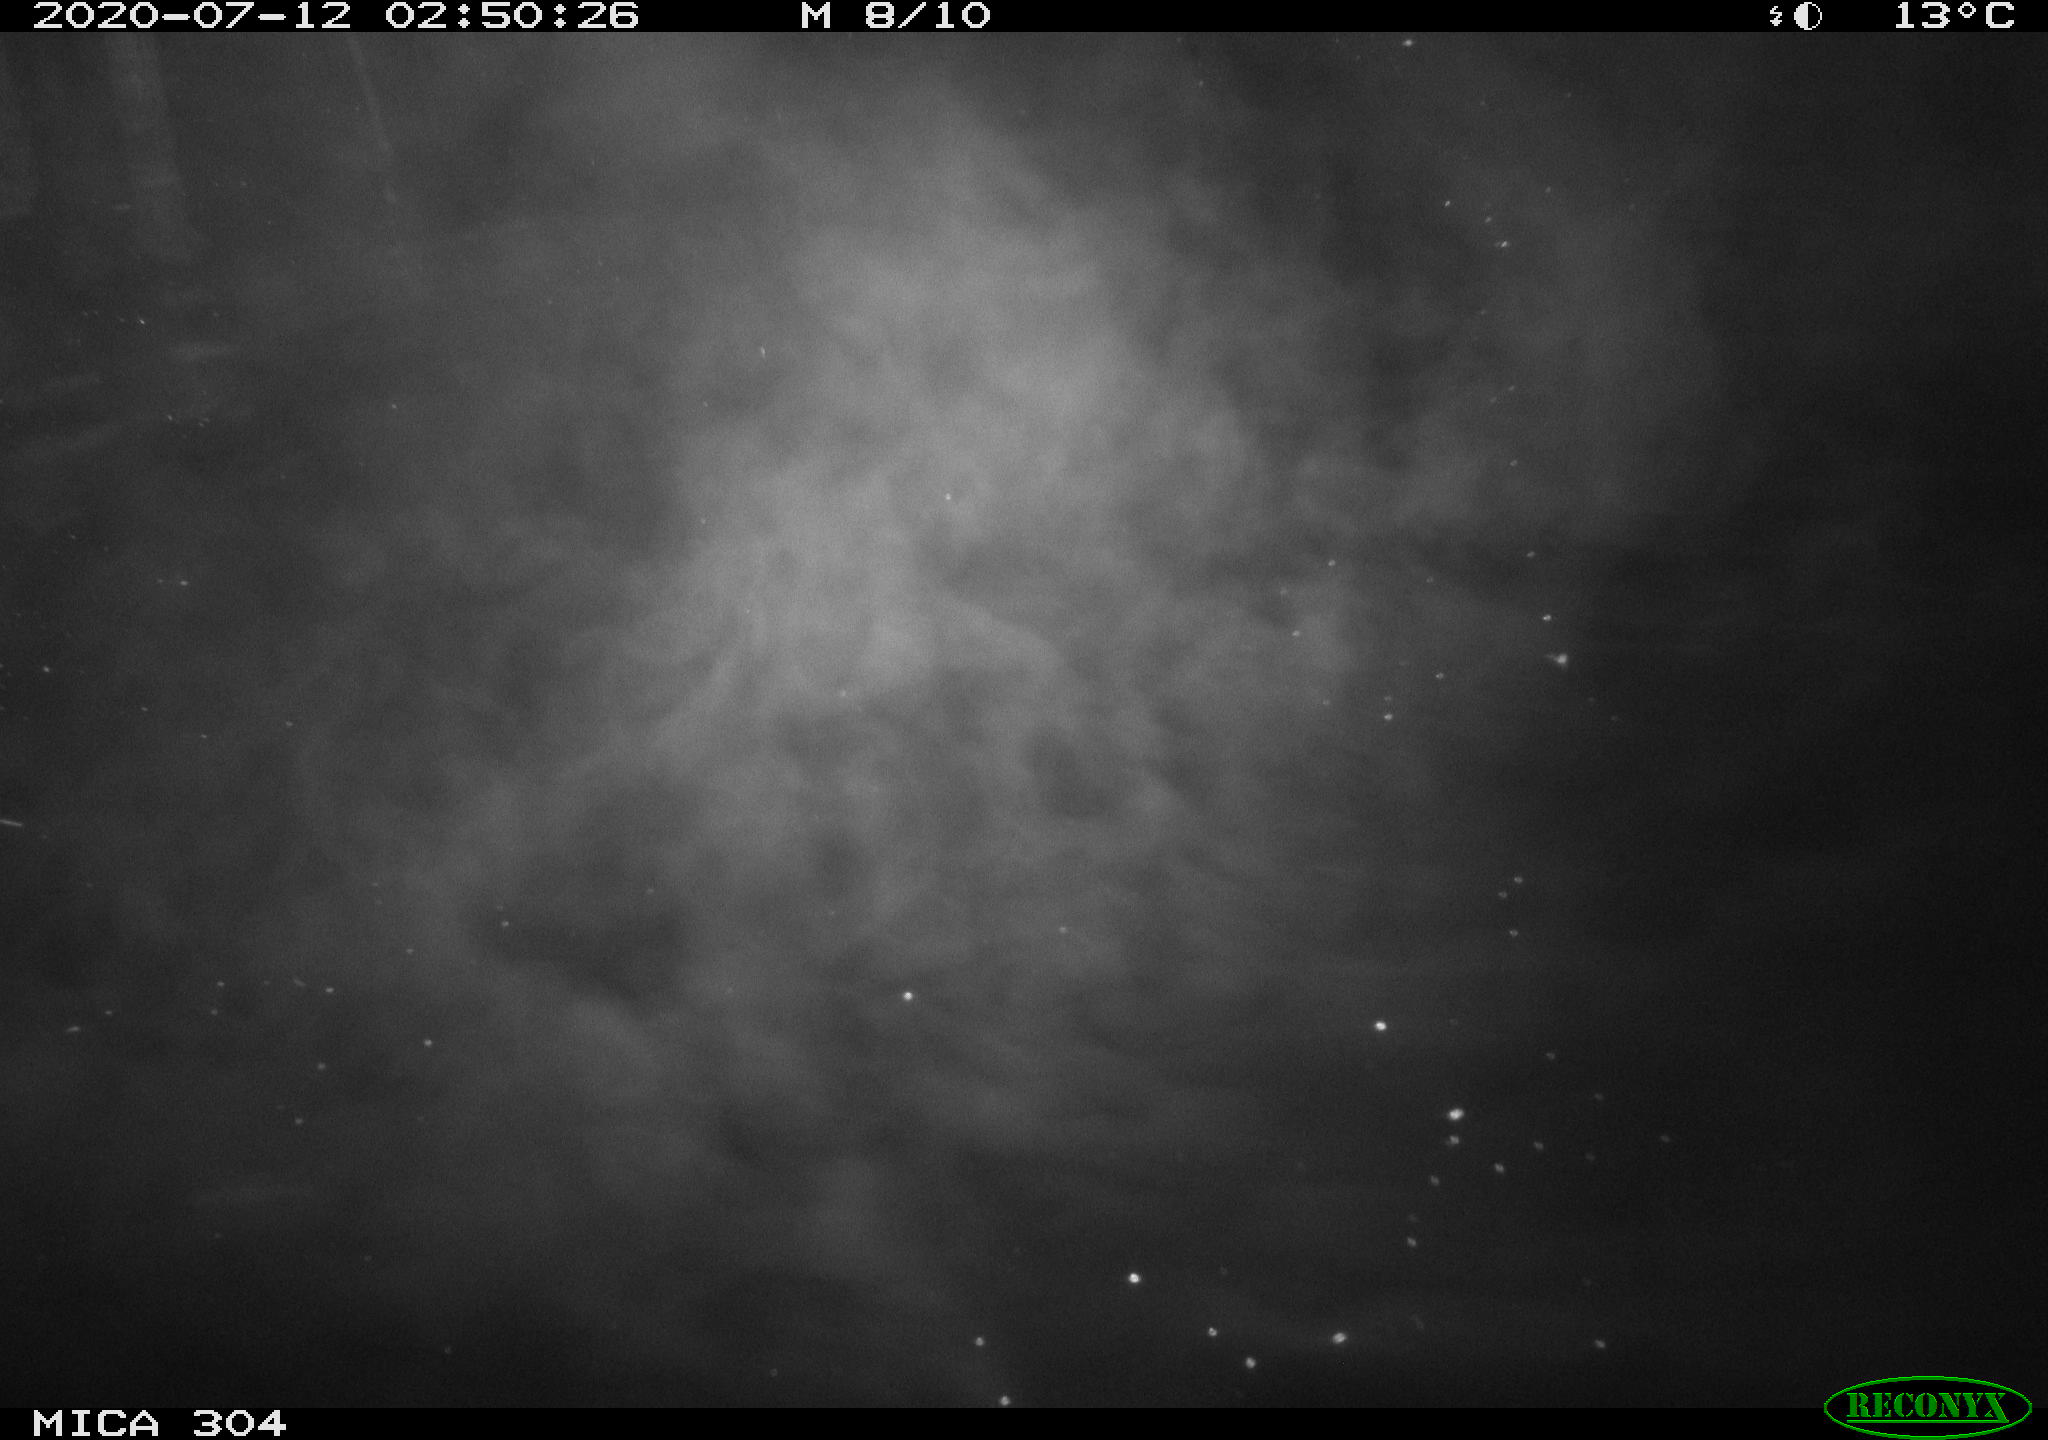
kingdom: Animalia
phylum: Chordata
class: Mammalia
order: Rodentia
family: Cricetidae
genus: Ondatra
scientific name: Ondatra zibethicus
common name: Muskrat
